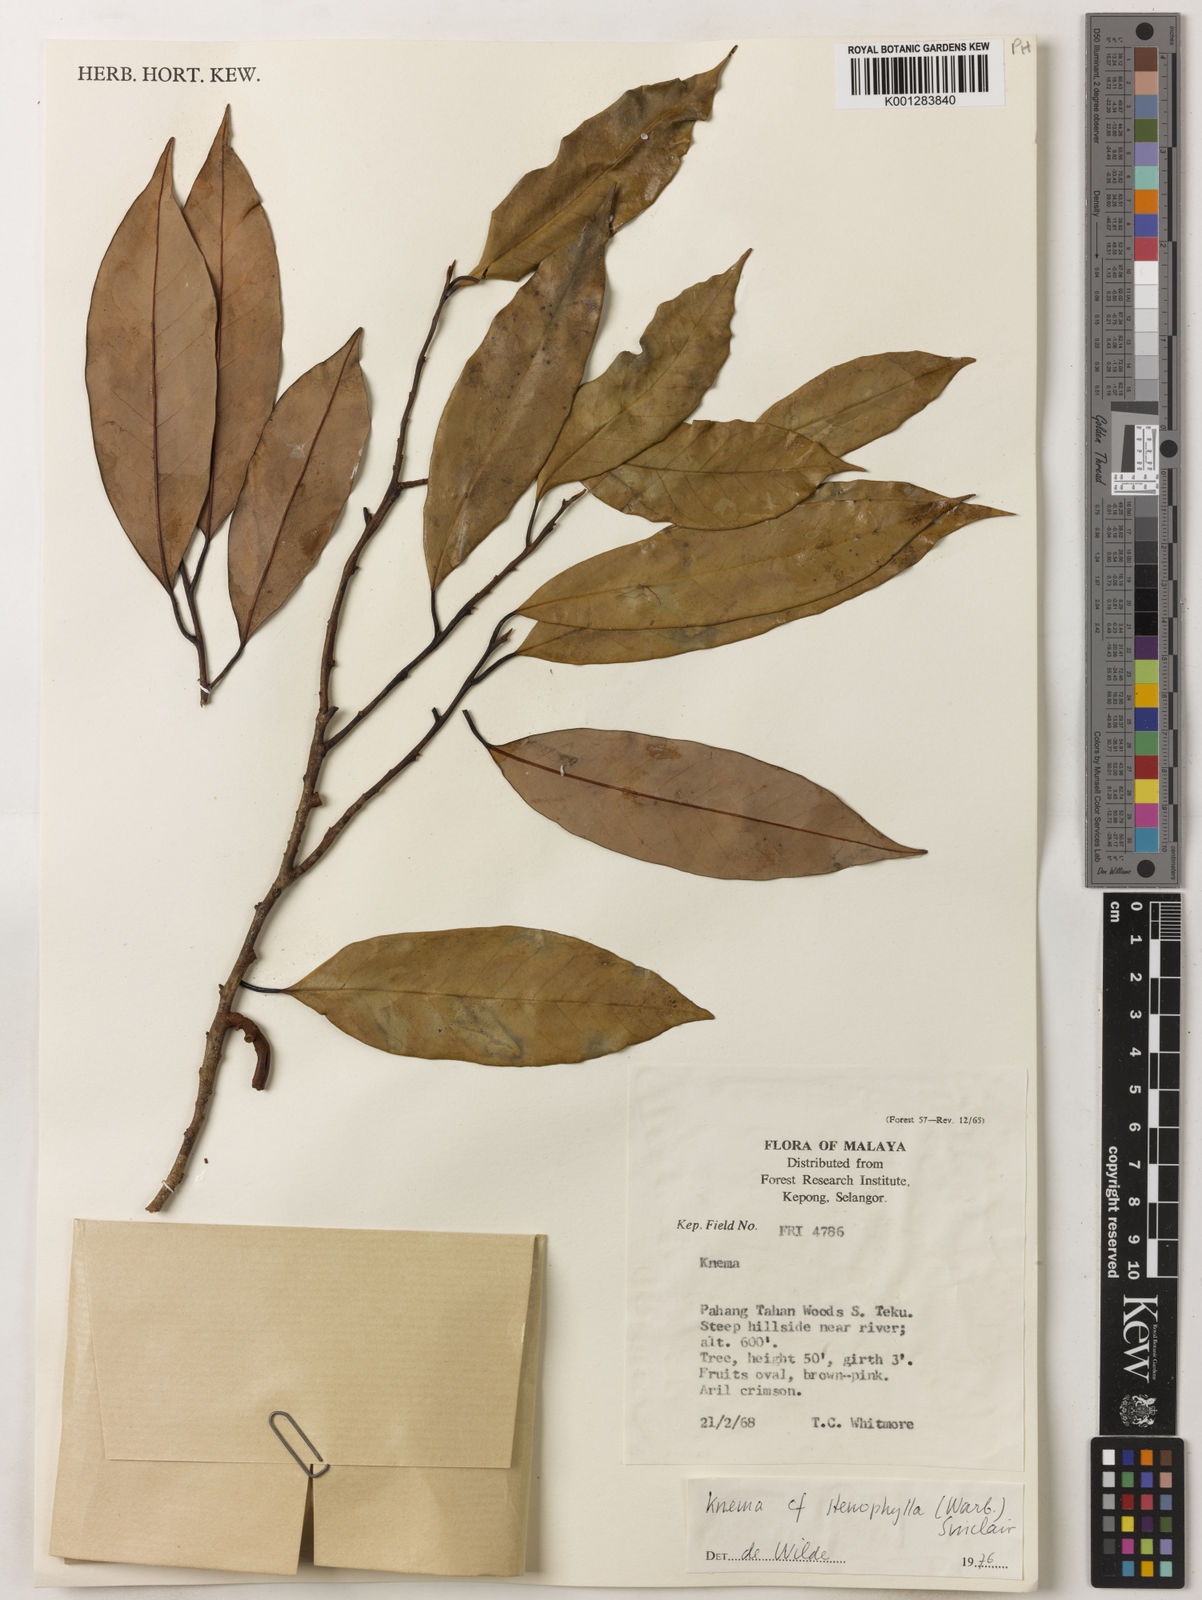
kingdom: Plantae
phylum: Tracheophyta
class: Magnoliopsida
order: Magnoliales
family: Myristicaceae
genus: Knema
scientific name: Knema stenophylla
